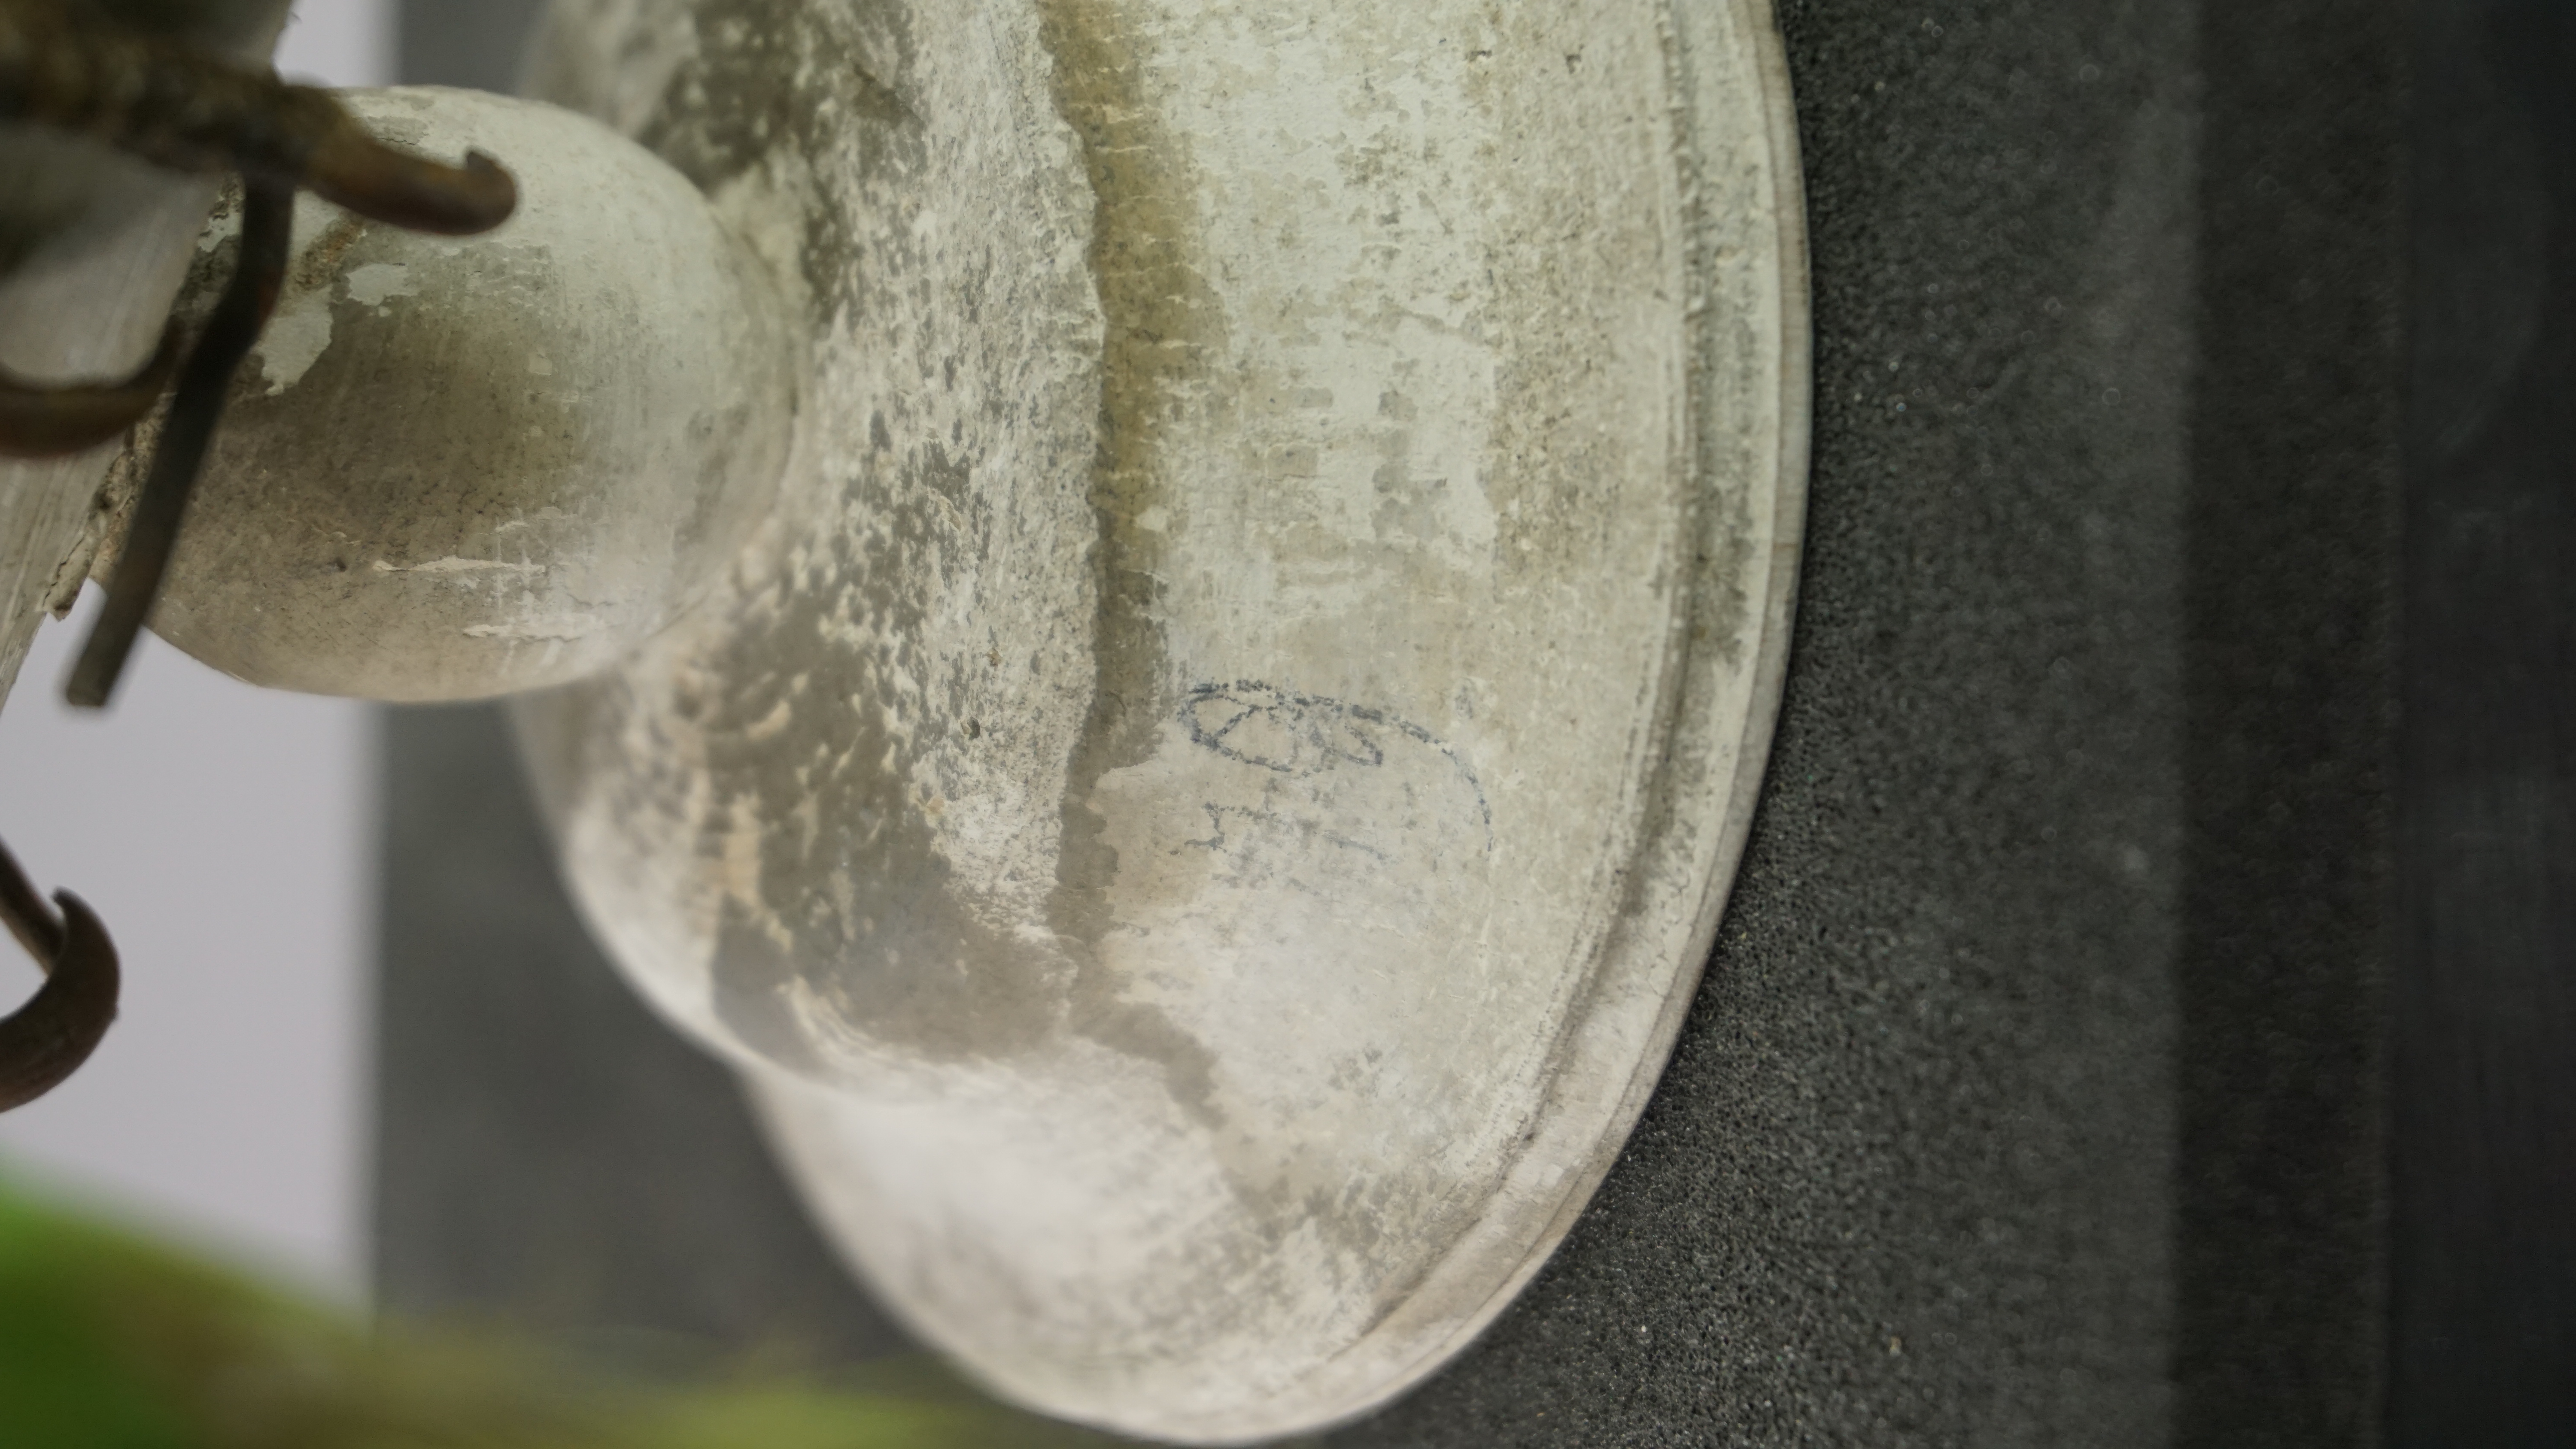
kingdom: Animalia
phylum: Chordata
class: Aves
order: Psittaciformes
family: Psittacidae
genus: Amazona
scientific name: Amazona amazonica
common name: Orange-winged amazon
